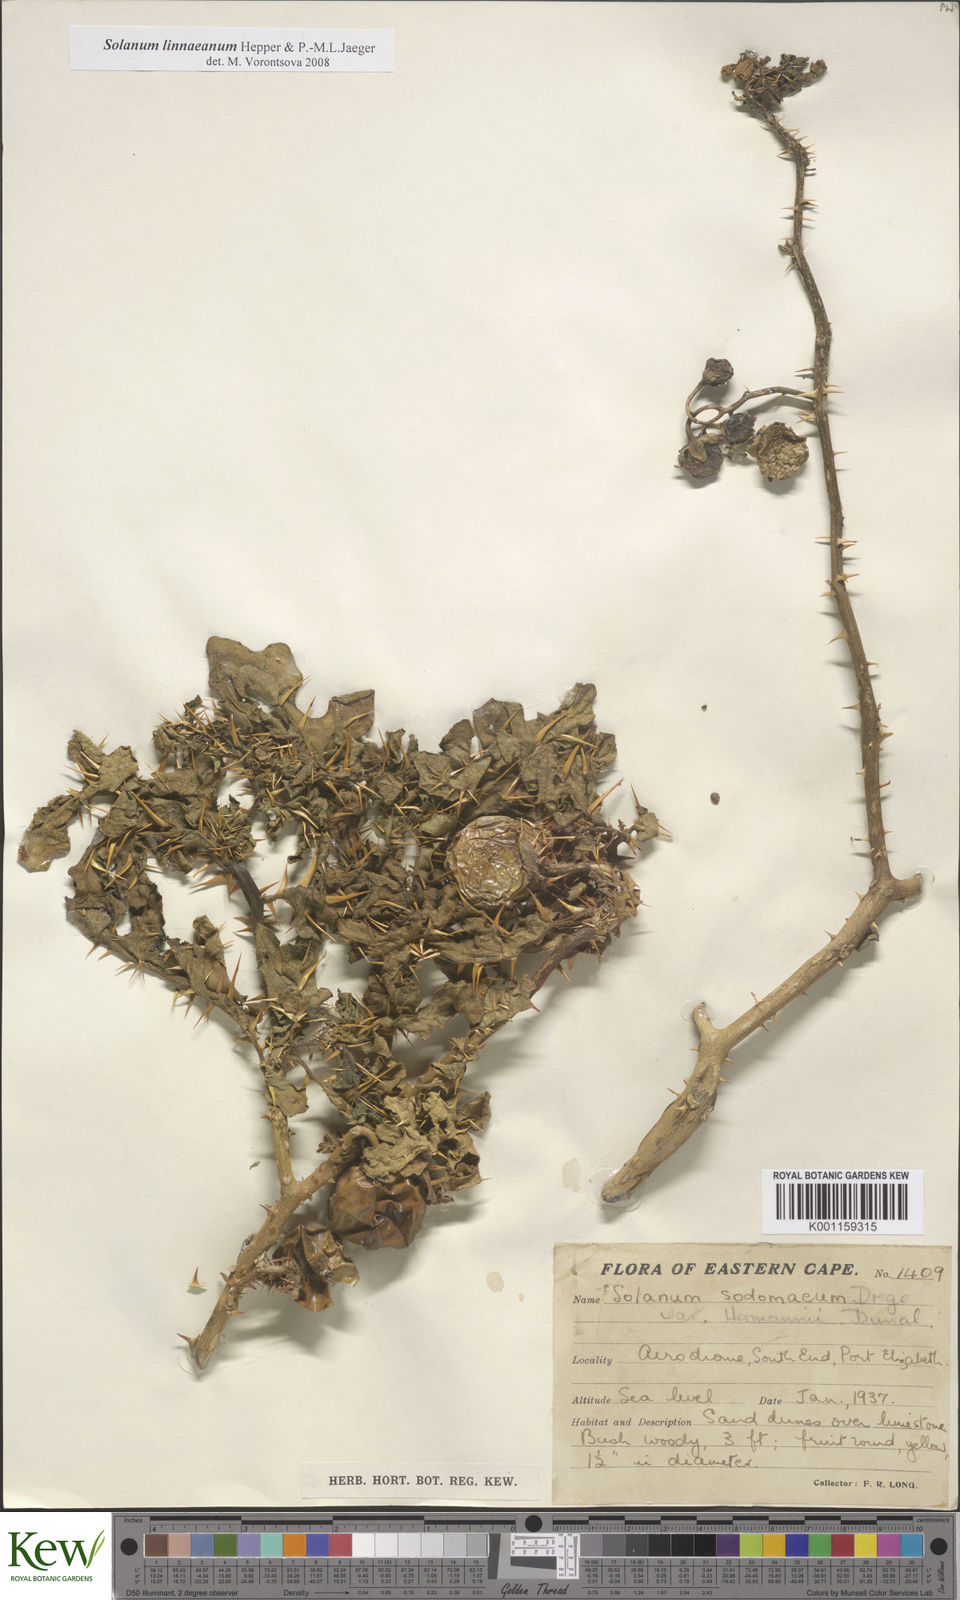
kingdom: Plantae
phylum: Tracheophyta
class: Magnoliopsida
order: Solanales
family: Solanaceae
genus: Solanum
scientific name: Solanum linnaeanum
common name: Nightshade
